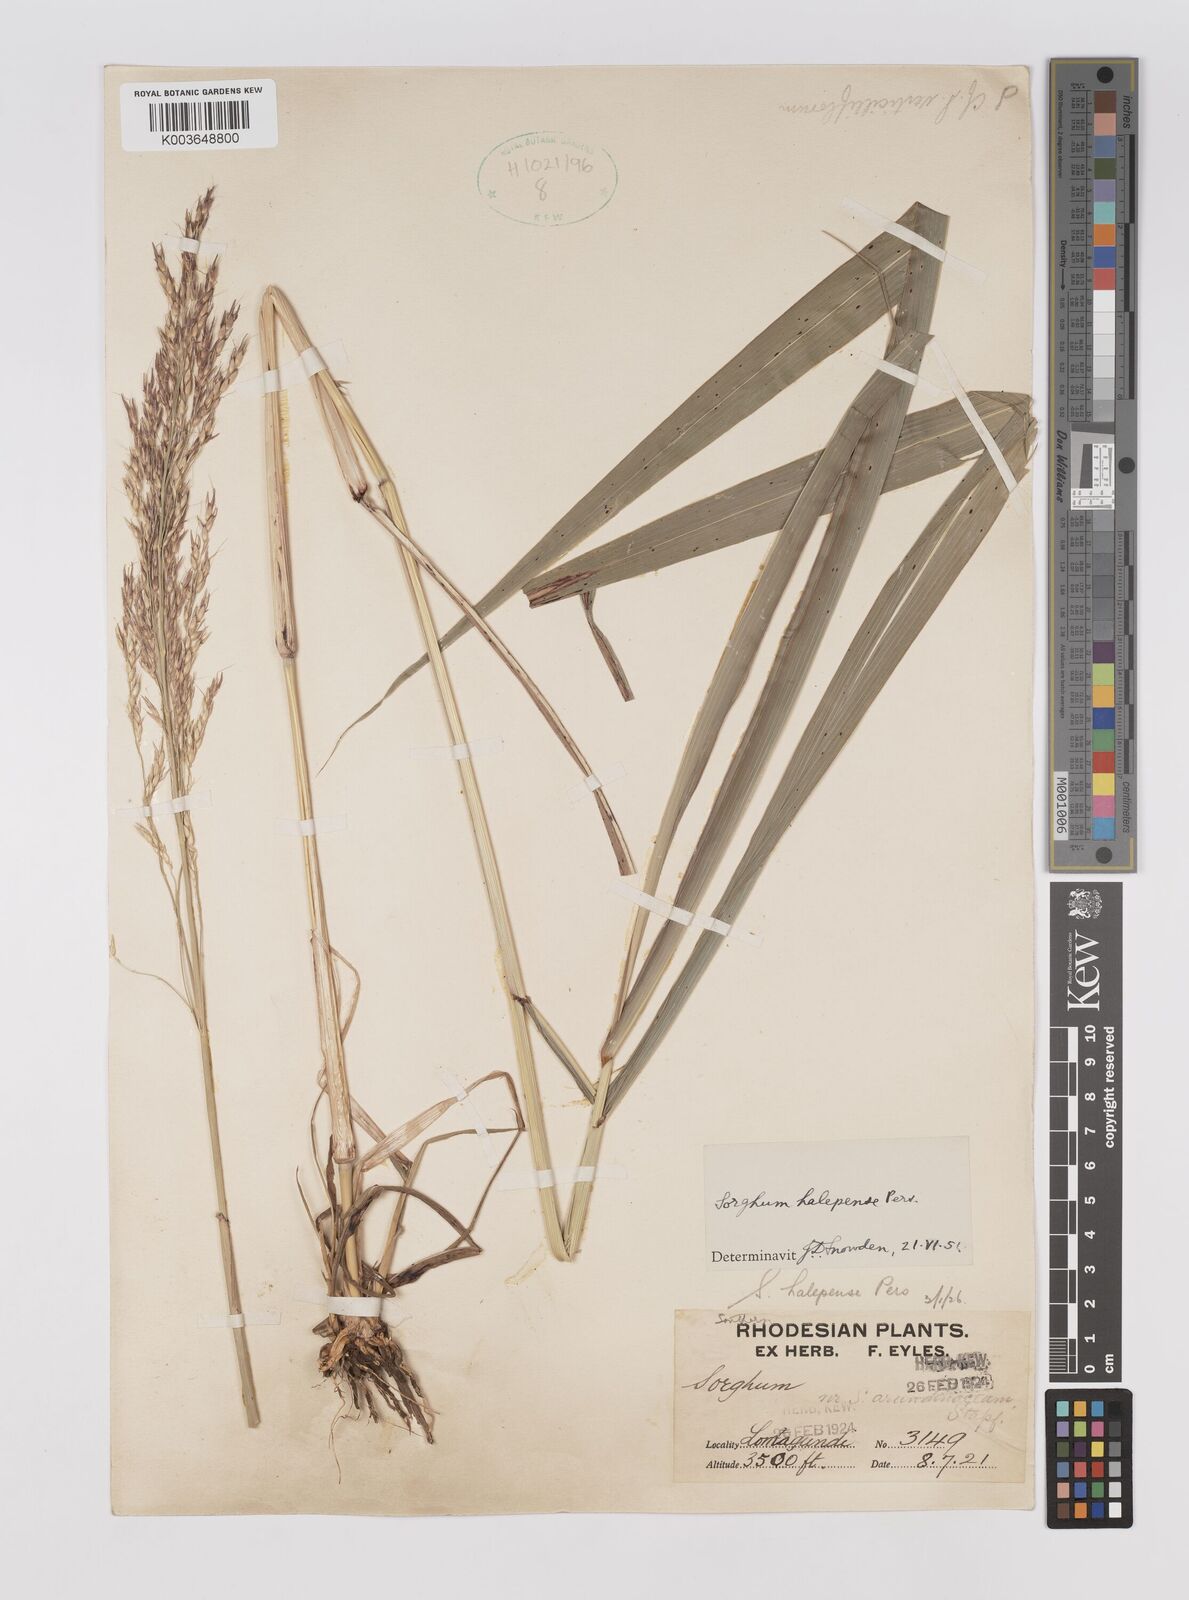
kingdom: Plantae
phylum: Tracheophyta
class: Liliopsida
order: Poales
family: Poaceae
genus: Sorghum
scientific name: Sorghum halepense
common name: Johnson-grass
